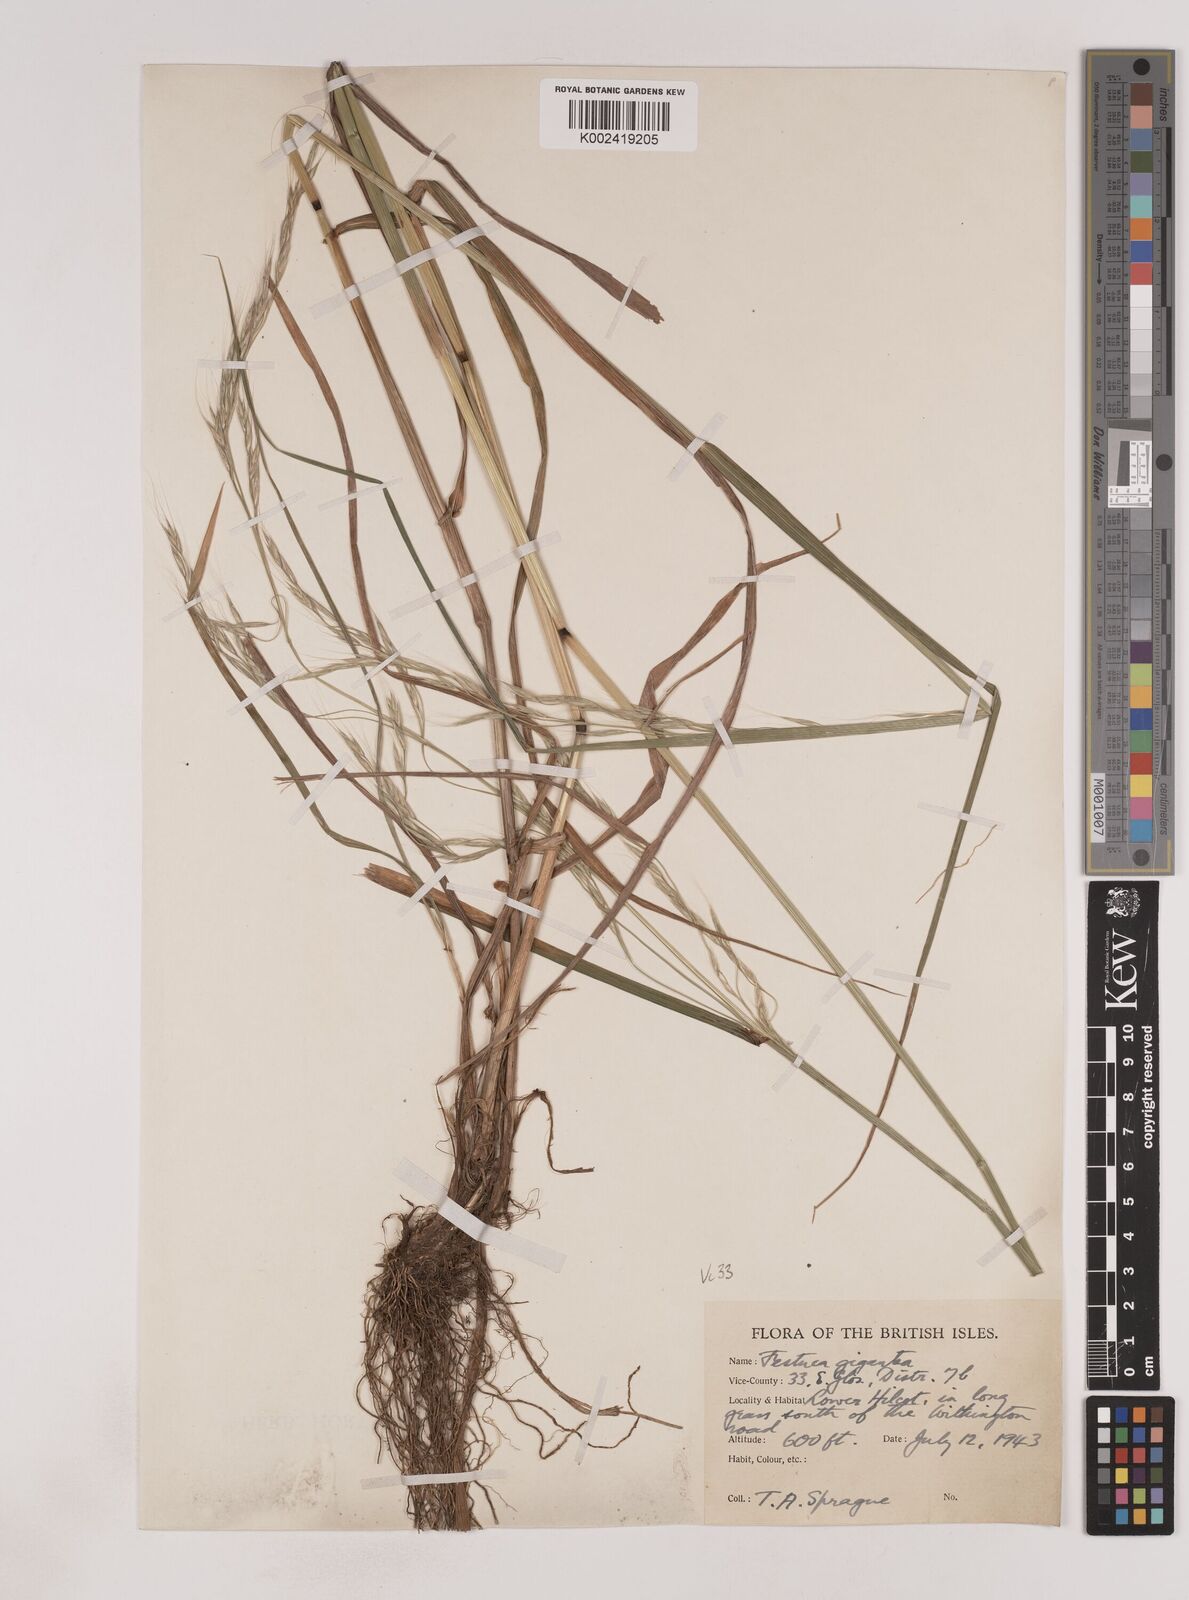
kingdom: Plantae
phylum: Tracheophyta
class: Liliopsida
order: Poales
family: Poaceae
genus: Lolium
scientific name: Lolium giganteum
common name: Giant fescue
